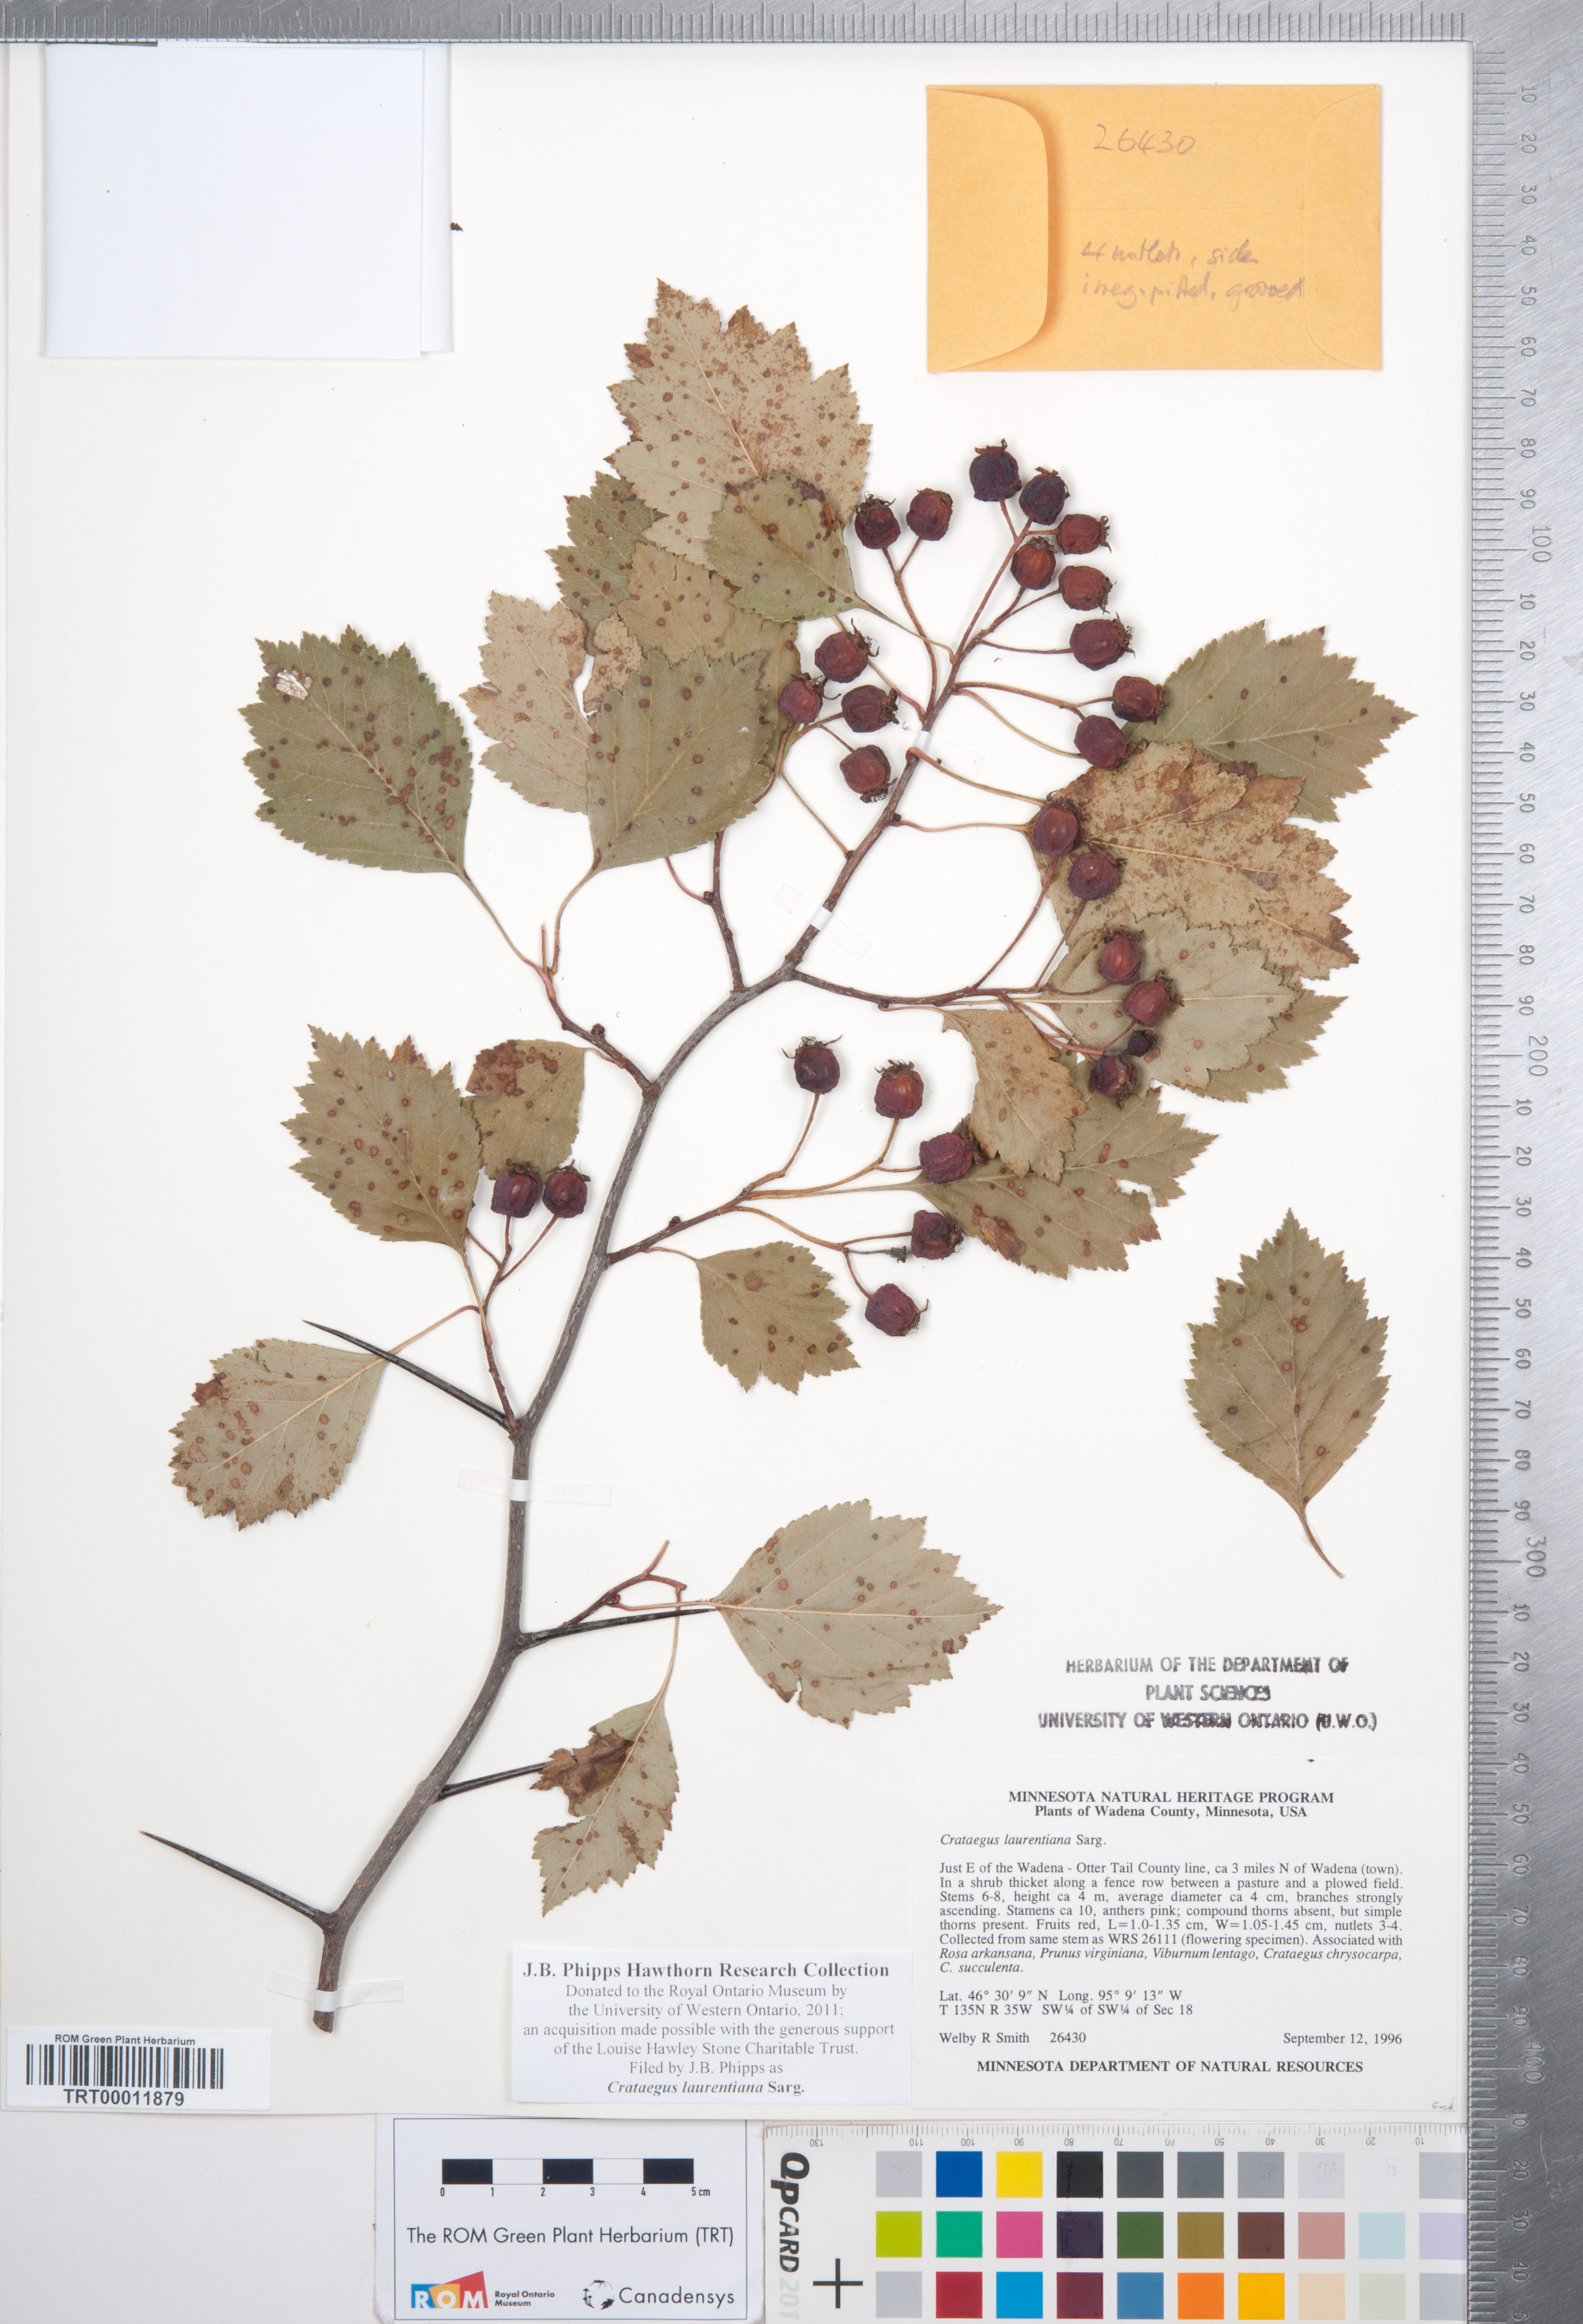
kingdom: Plantae
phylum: Tracheophyta
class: Magnoliopsida
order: Rosales
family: Rosaceae
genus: Crataegus
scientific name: Crataegus jonesiae
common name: Jones' hawthorn
